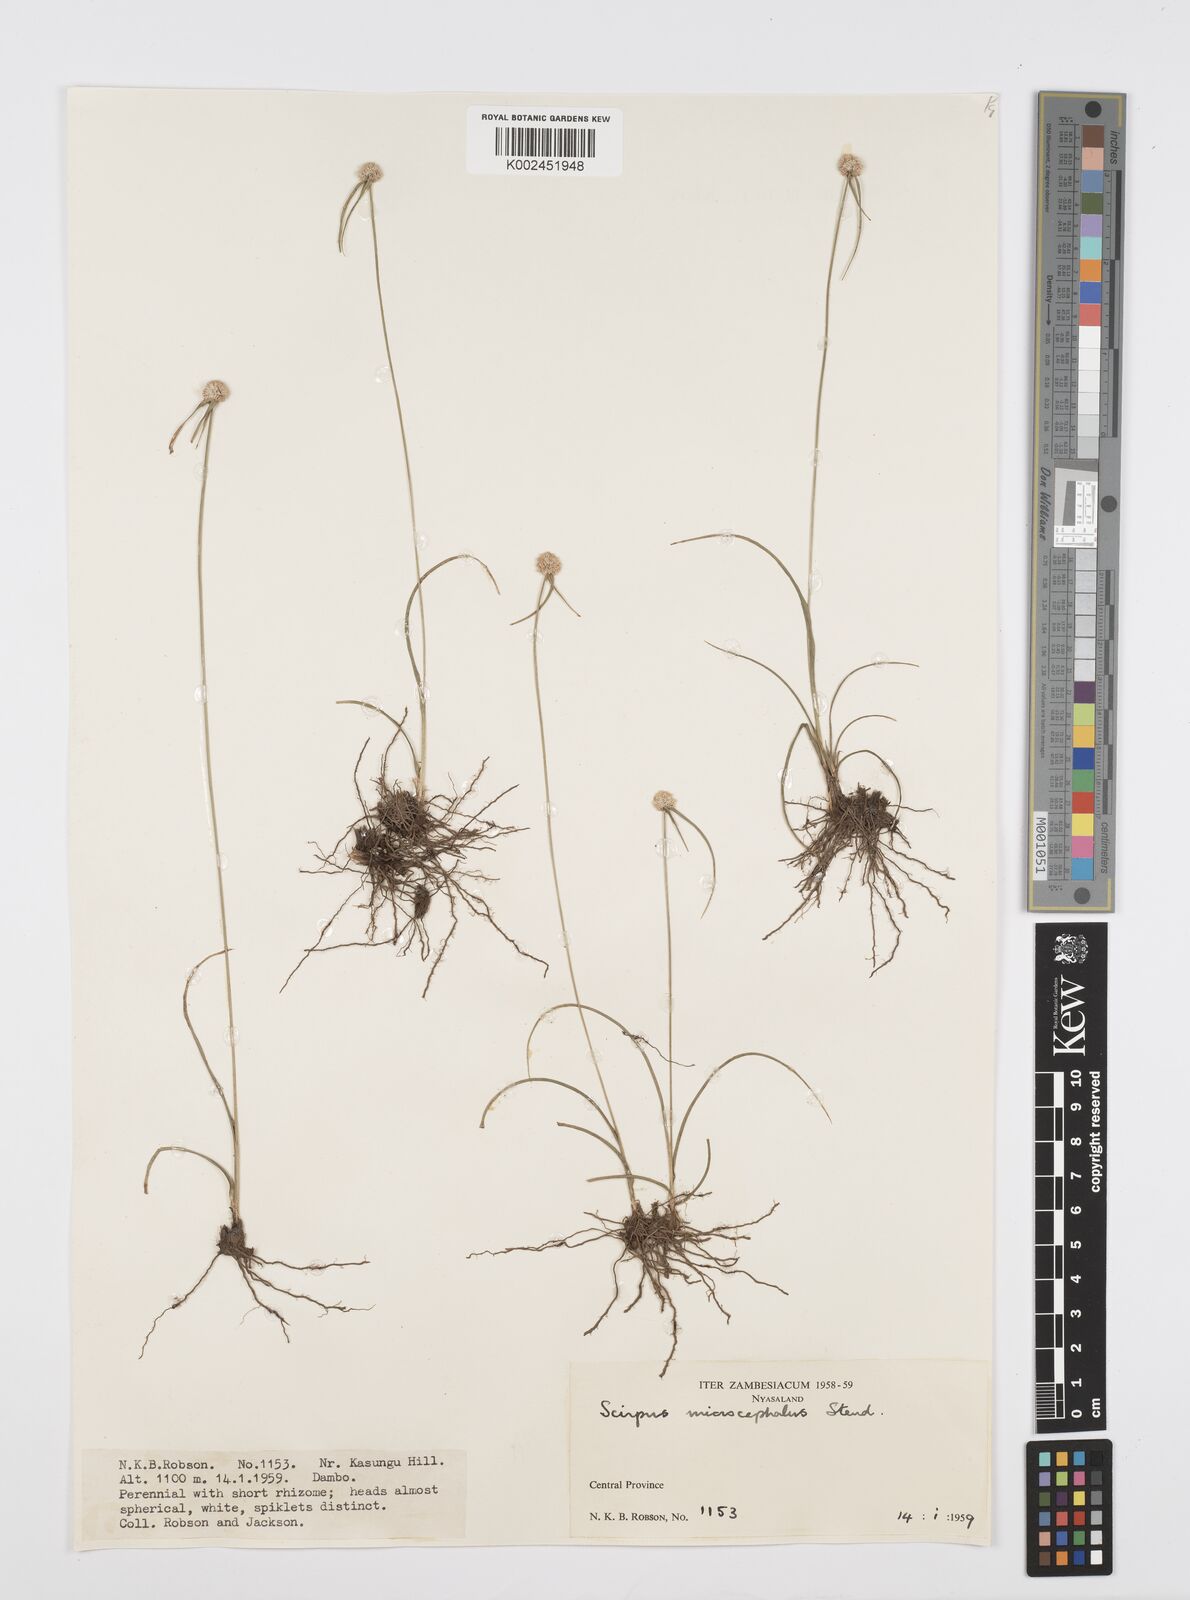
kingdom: Plantae
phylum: Tracheophyta
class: Liliopsida
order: Poales
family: Cyperaceae
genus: Cyperus
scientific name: Cyperus microcephalus
